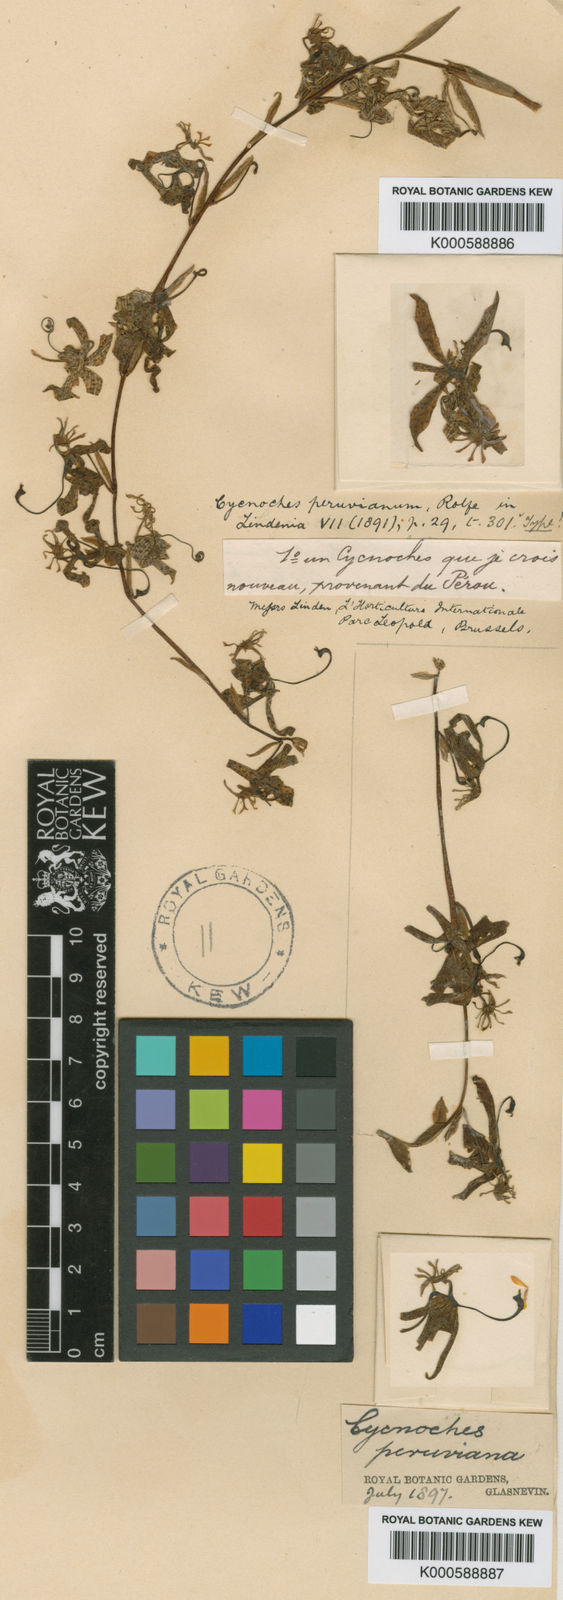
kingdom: Plantae
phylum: Tracheophyta
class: Liliopsida
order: Asparagales
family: Orchidaceae
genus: Cycnoches
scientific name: Cycnoches peruvianum
